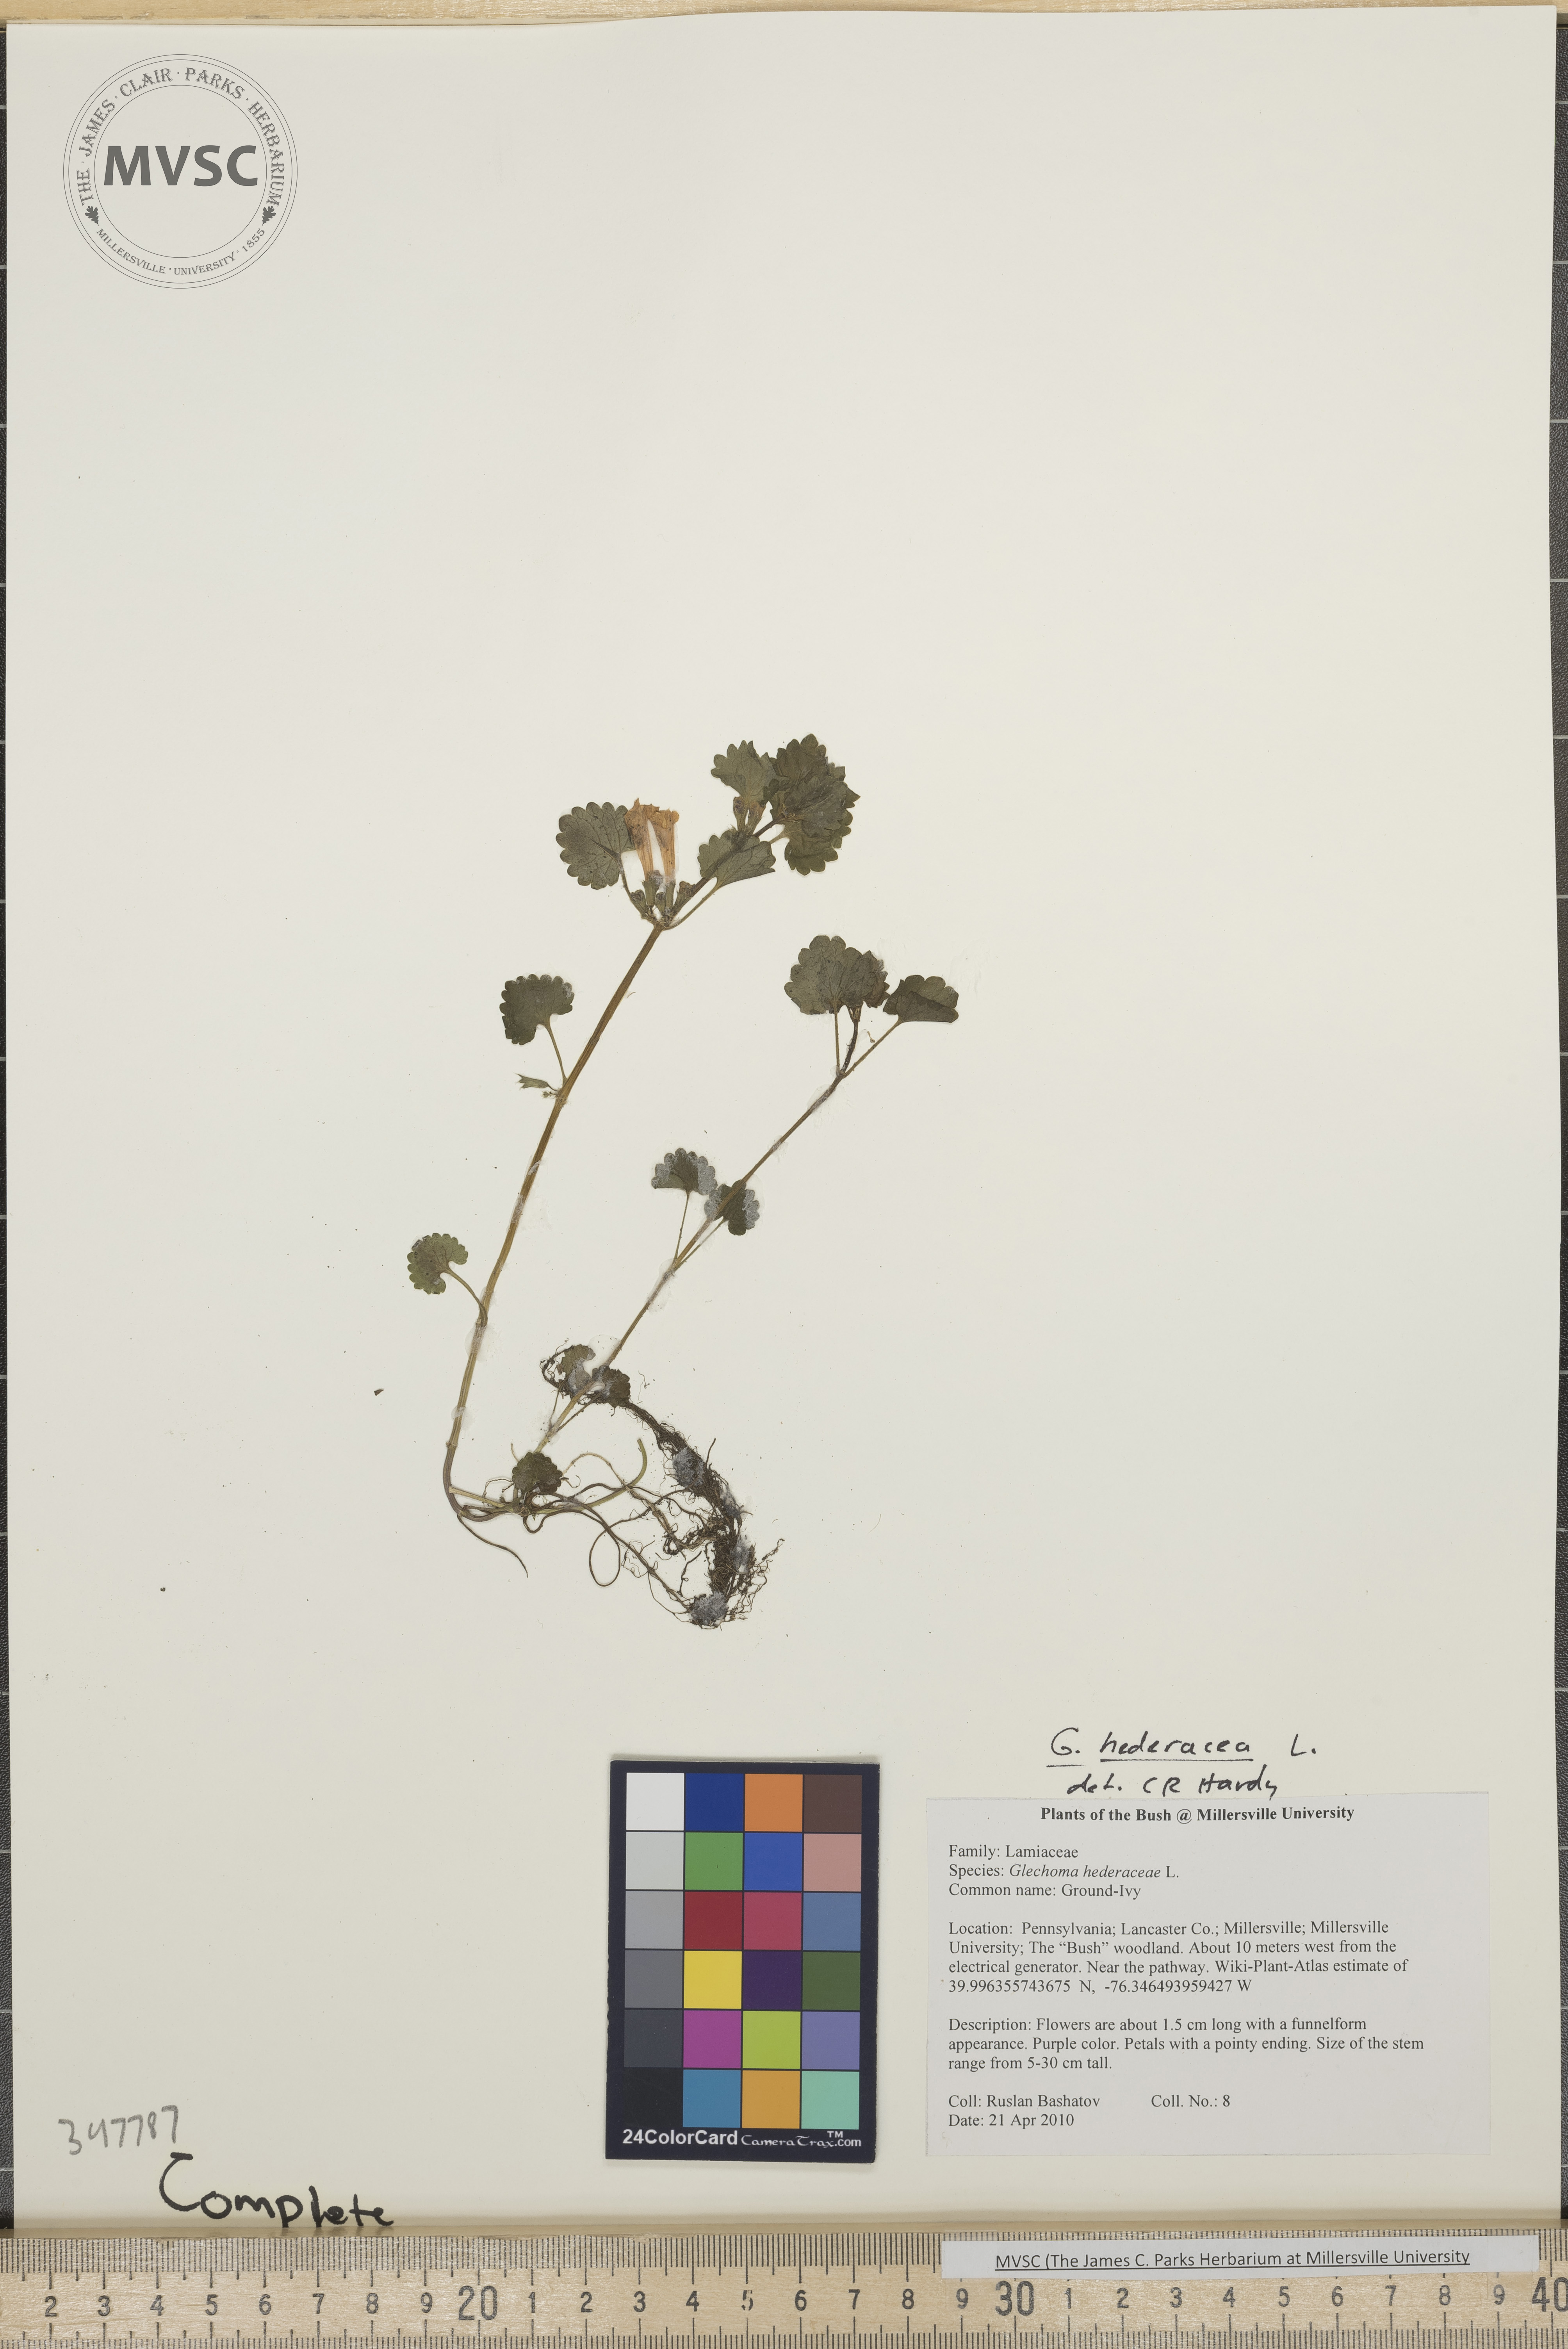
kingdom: Plantae
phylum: Tracheophyta
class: Magnoliopsida
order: Lamiales
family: Lamiaceae
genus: Glechoma
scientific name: Glechoma hederacea
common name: Gill-over-the-ground
